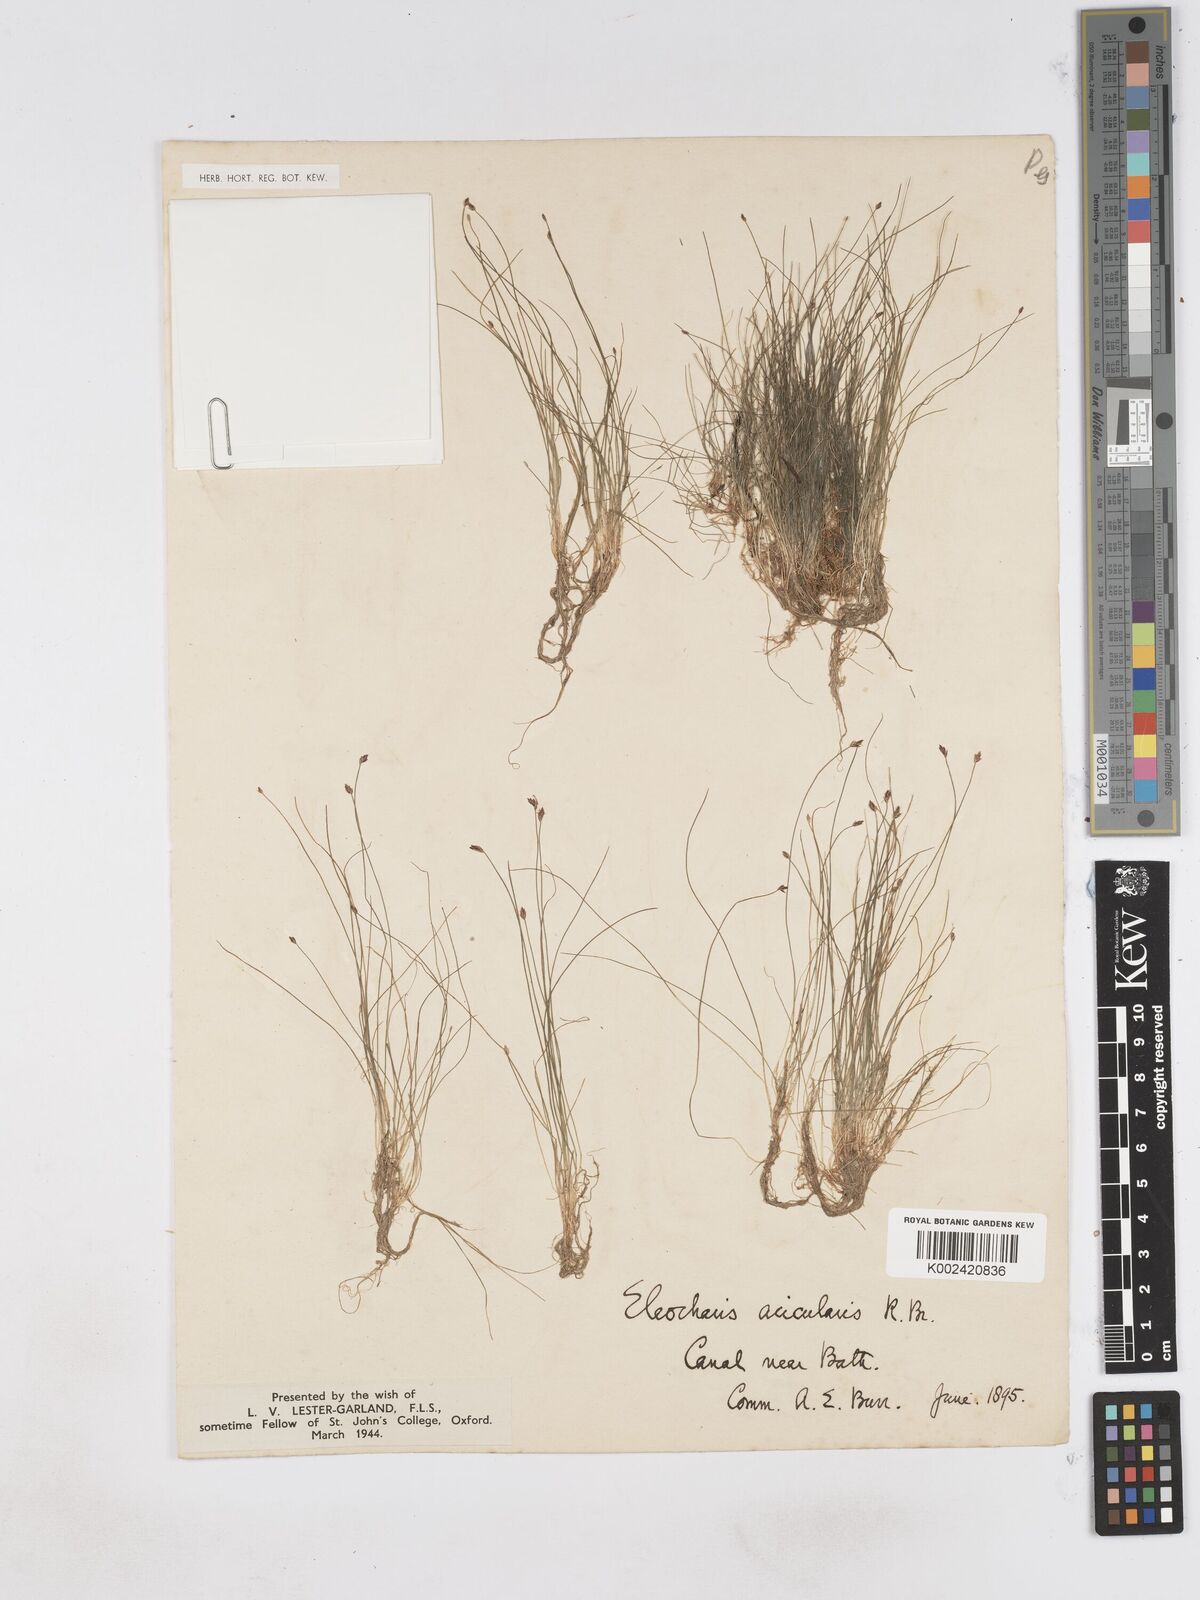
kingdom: Plantae
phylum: Tracheophyta
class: Liliopsida
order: Poales
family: Cyperaceae
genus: Eleocharis
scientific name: Eleocharis acicularis
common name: Needle spike-rush
